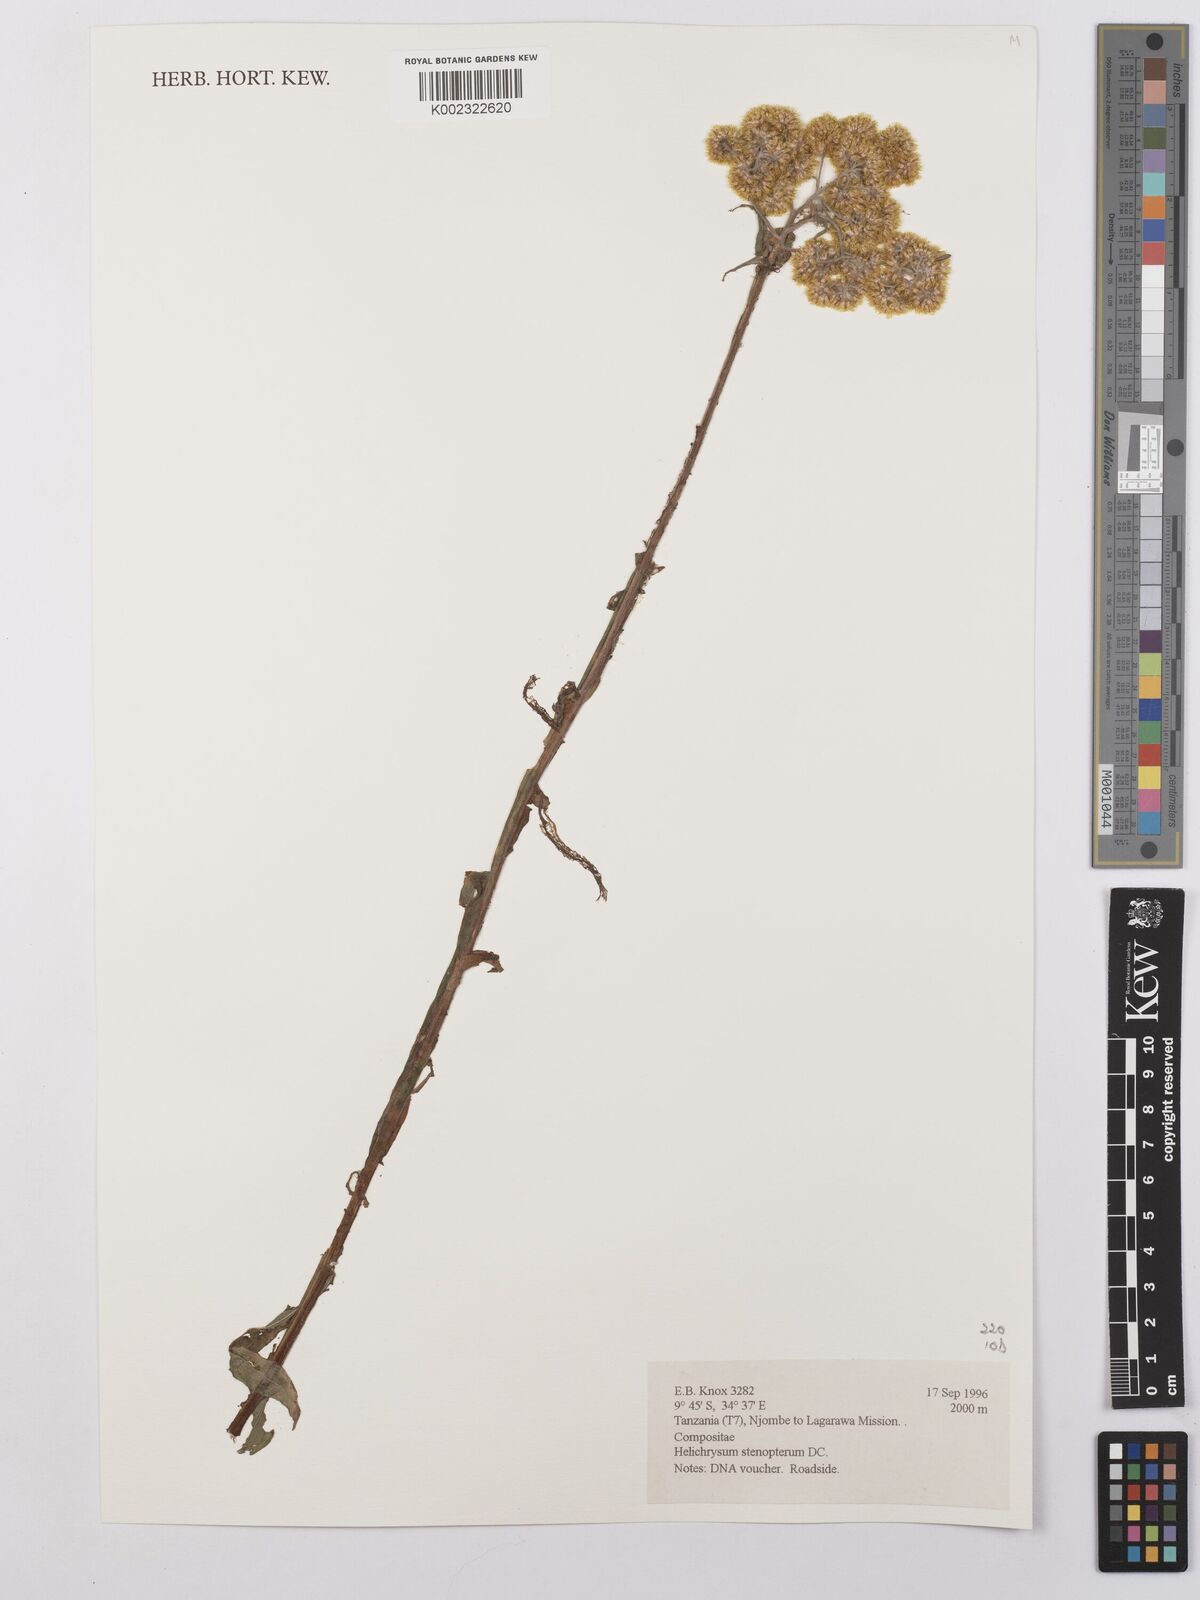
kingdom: Plantae
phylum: Tracheophyta
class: Magnoliopsida
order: Asterales
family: Asteraceae
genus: Helichrysum
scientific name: Helichrysum stenopterum
